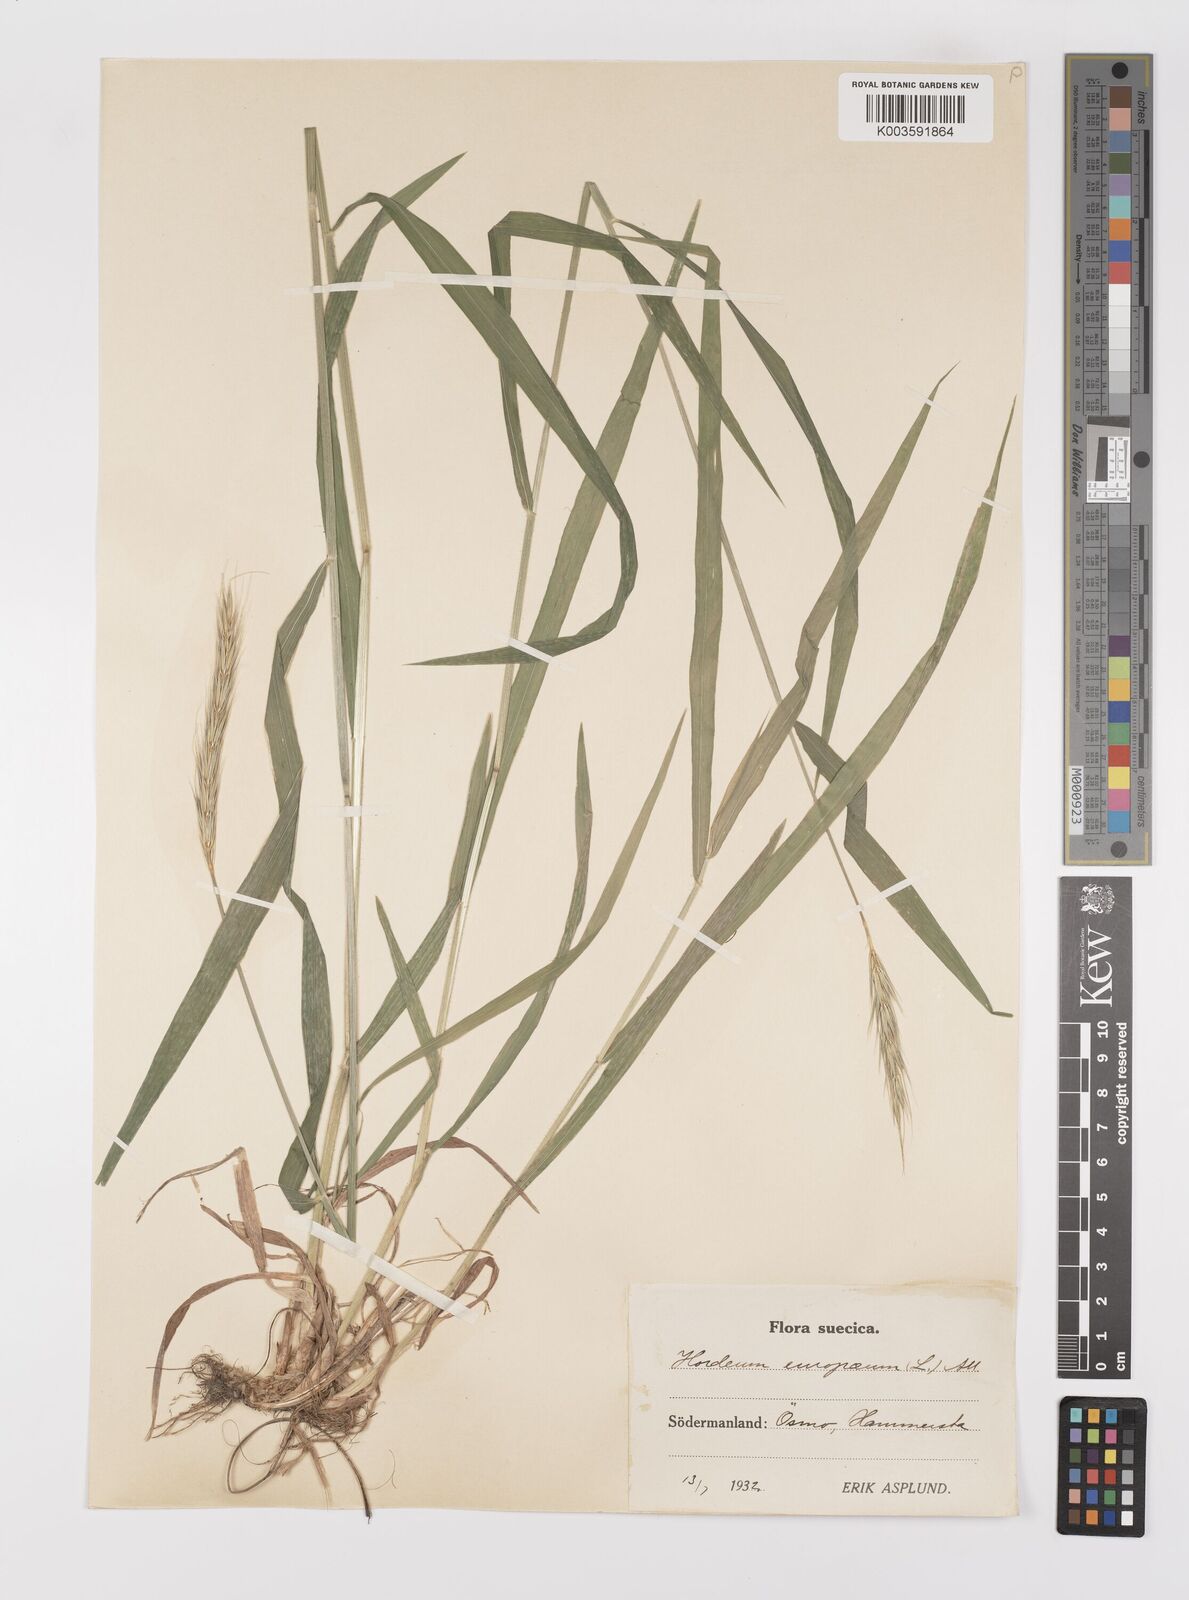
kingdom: Plantae
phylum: Tracheophyta
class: Liliopsida
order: Poales
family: Poaceae
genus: Hordelymus
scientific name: Hordelymus europaeus
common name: Wood-barley
